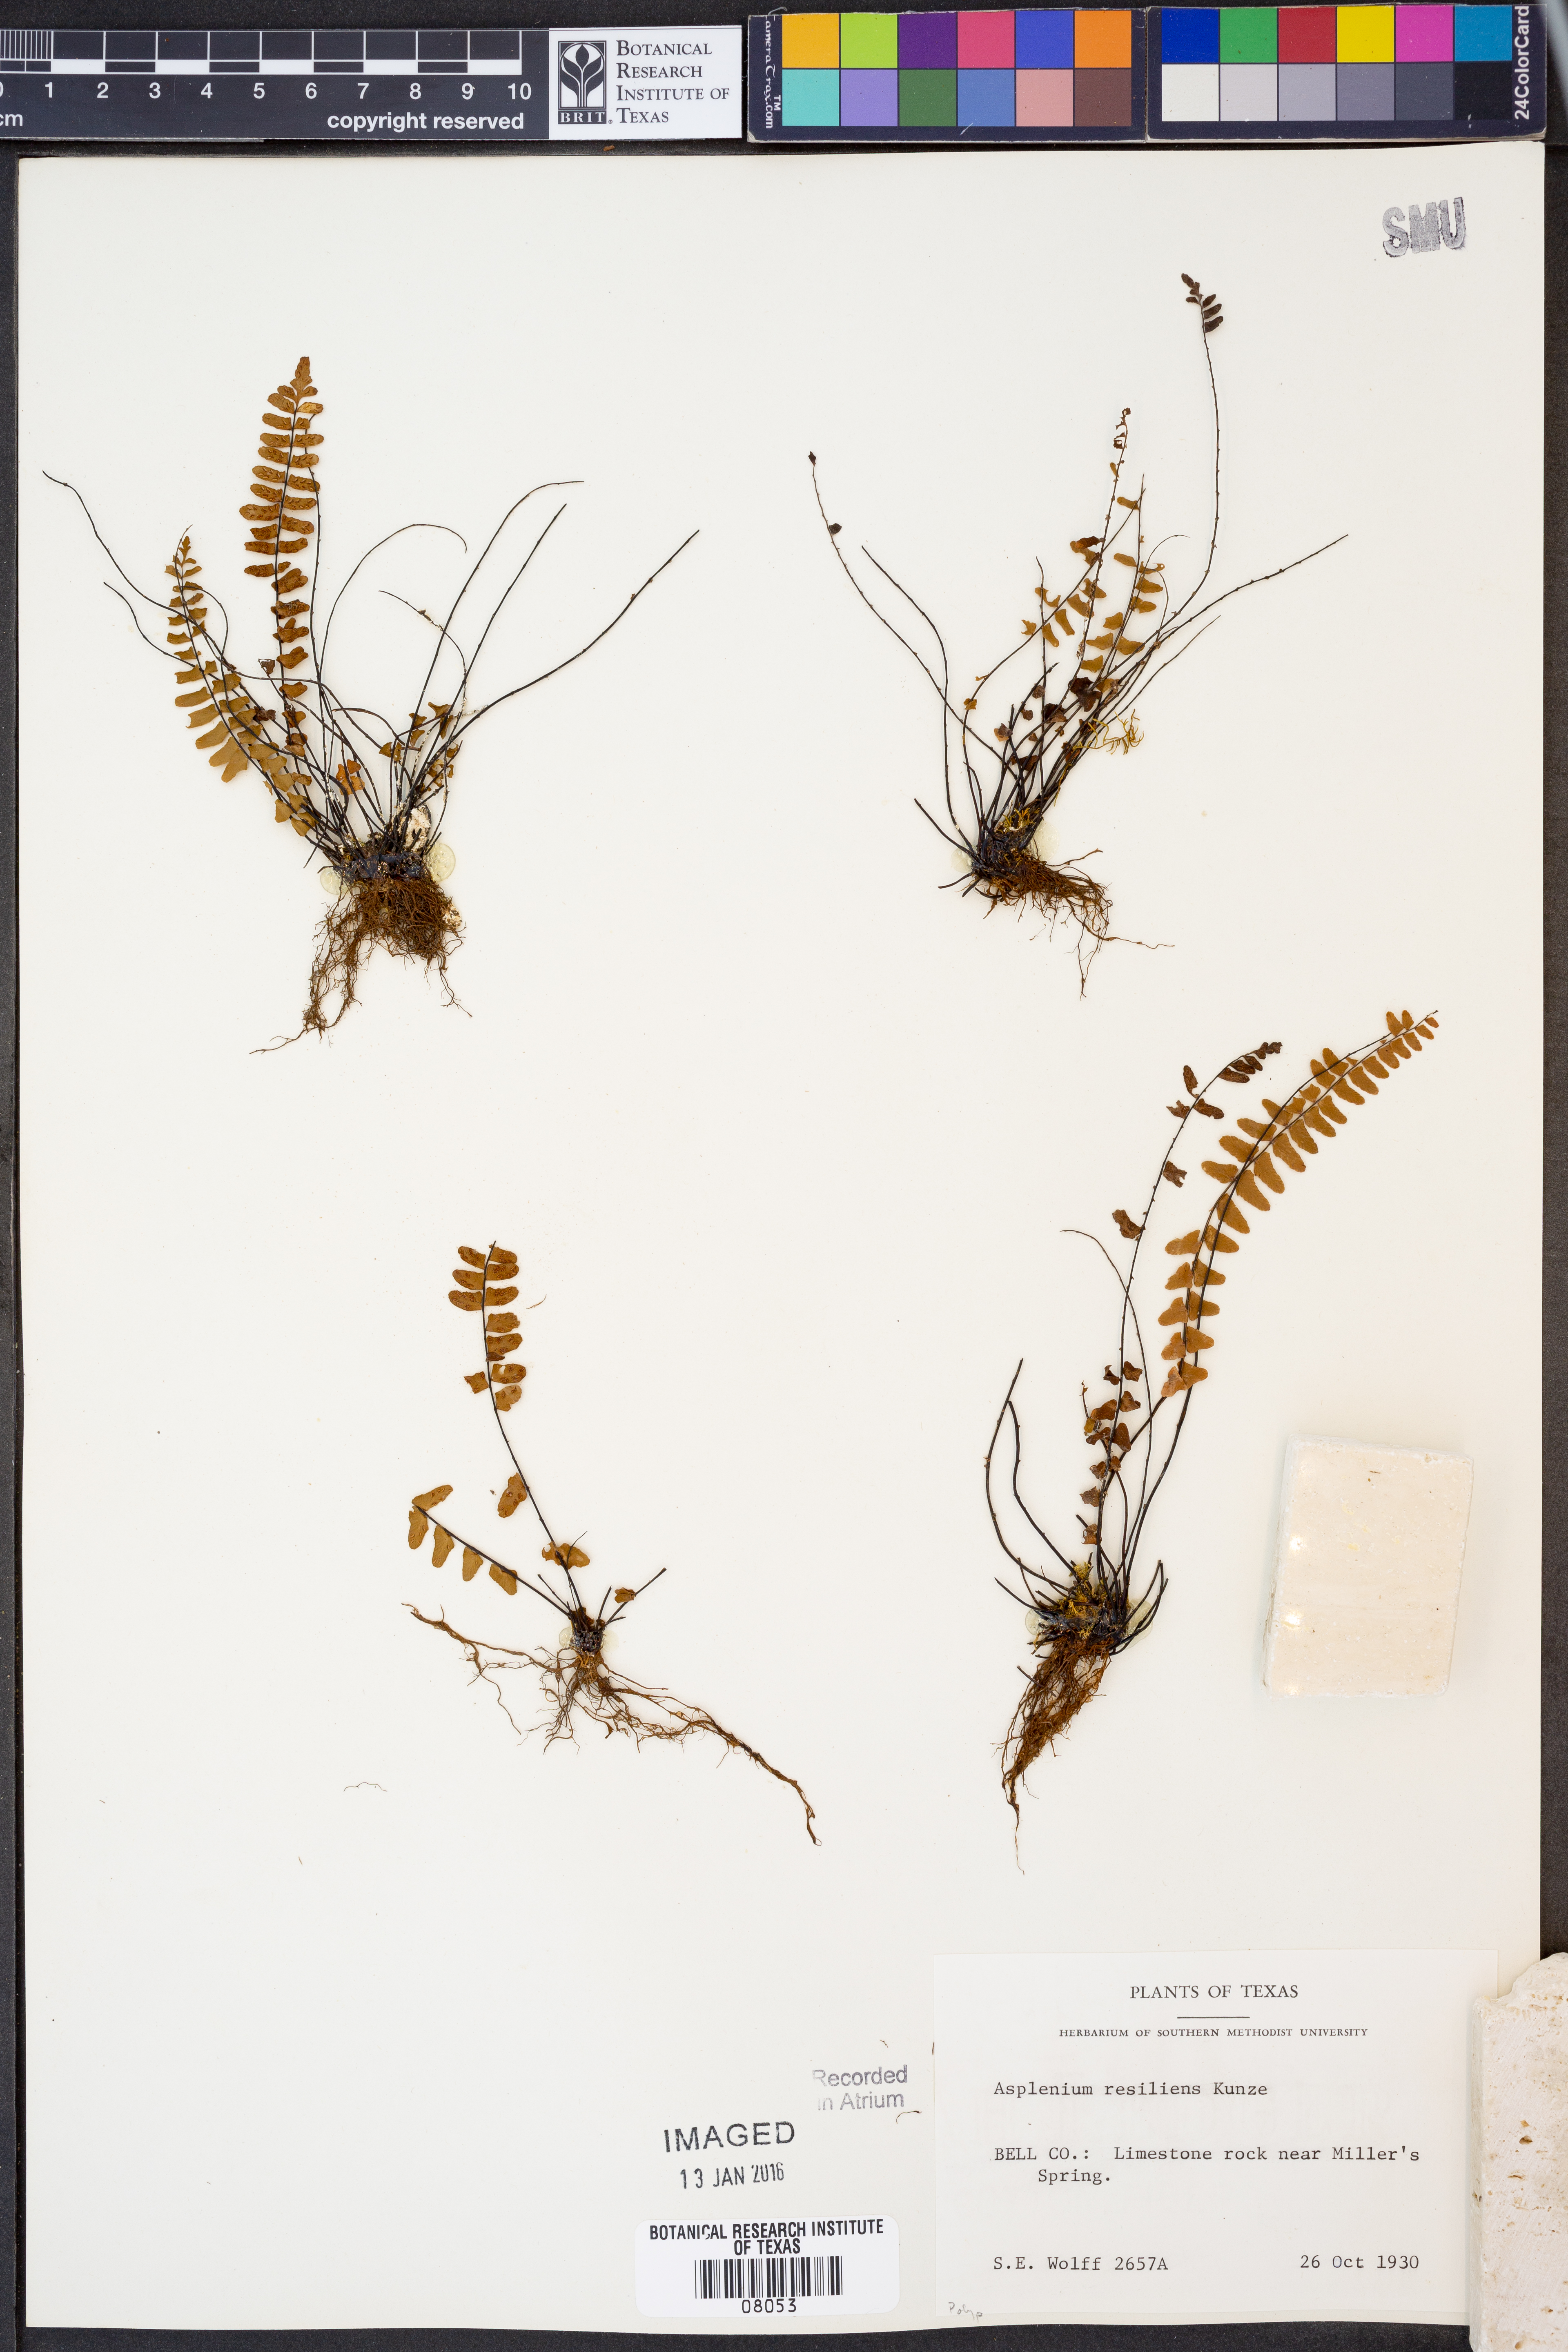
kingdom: Plantae
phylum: Tracheophyta
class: Polypodiopsida
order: Polypodiales
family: Aspleniaceae
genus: Asplenium
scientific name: Asplenium resiliens
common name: Blackstem spleenwort
